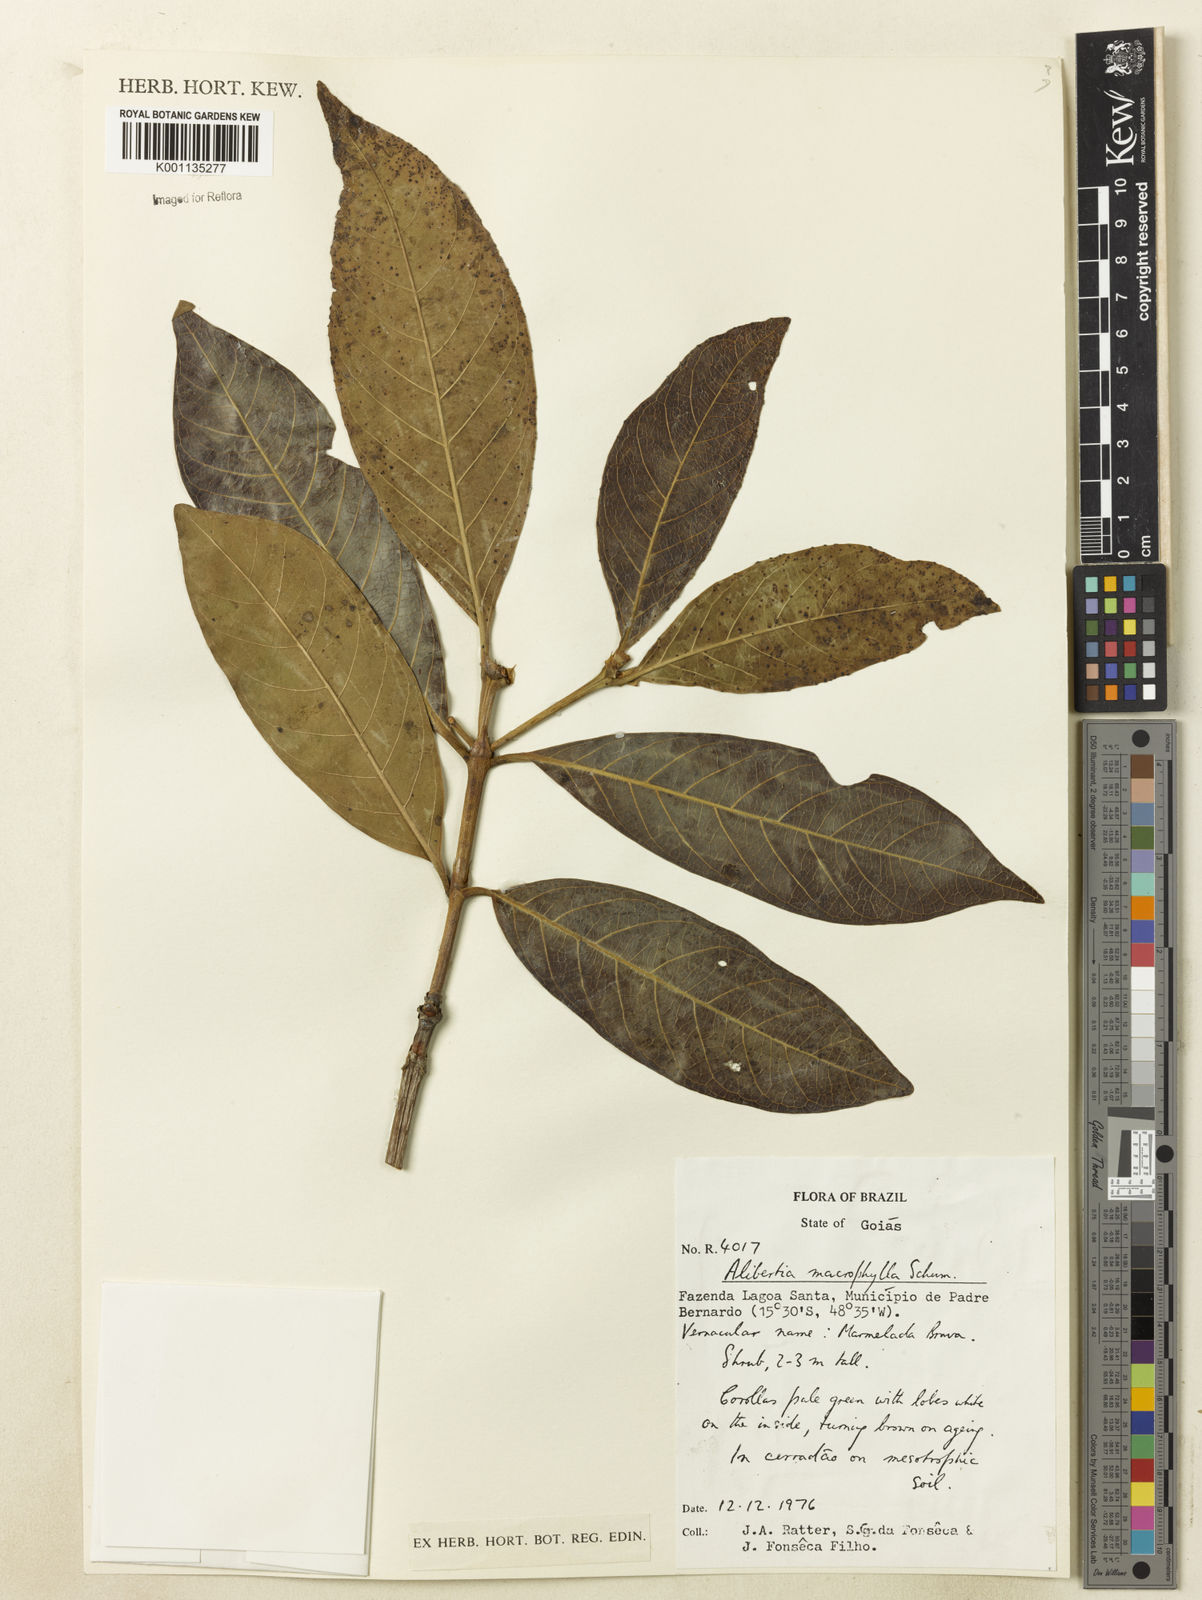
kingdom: Plantae
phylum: Tracheophyta
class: Magnoliopsida
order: Gentianales
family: Rubiaceae
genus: Alibertia
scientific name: Alibertia edulis
